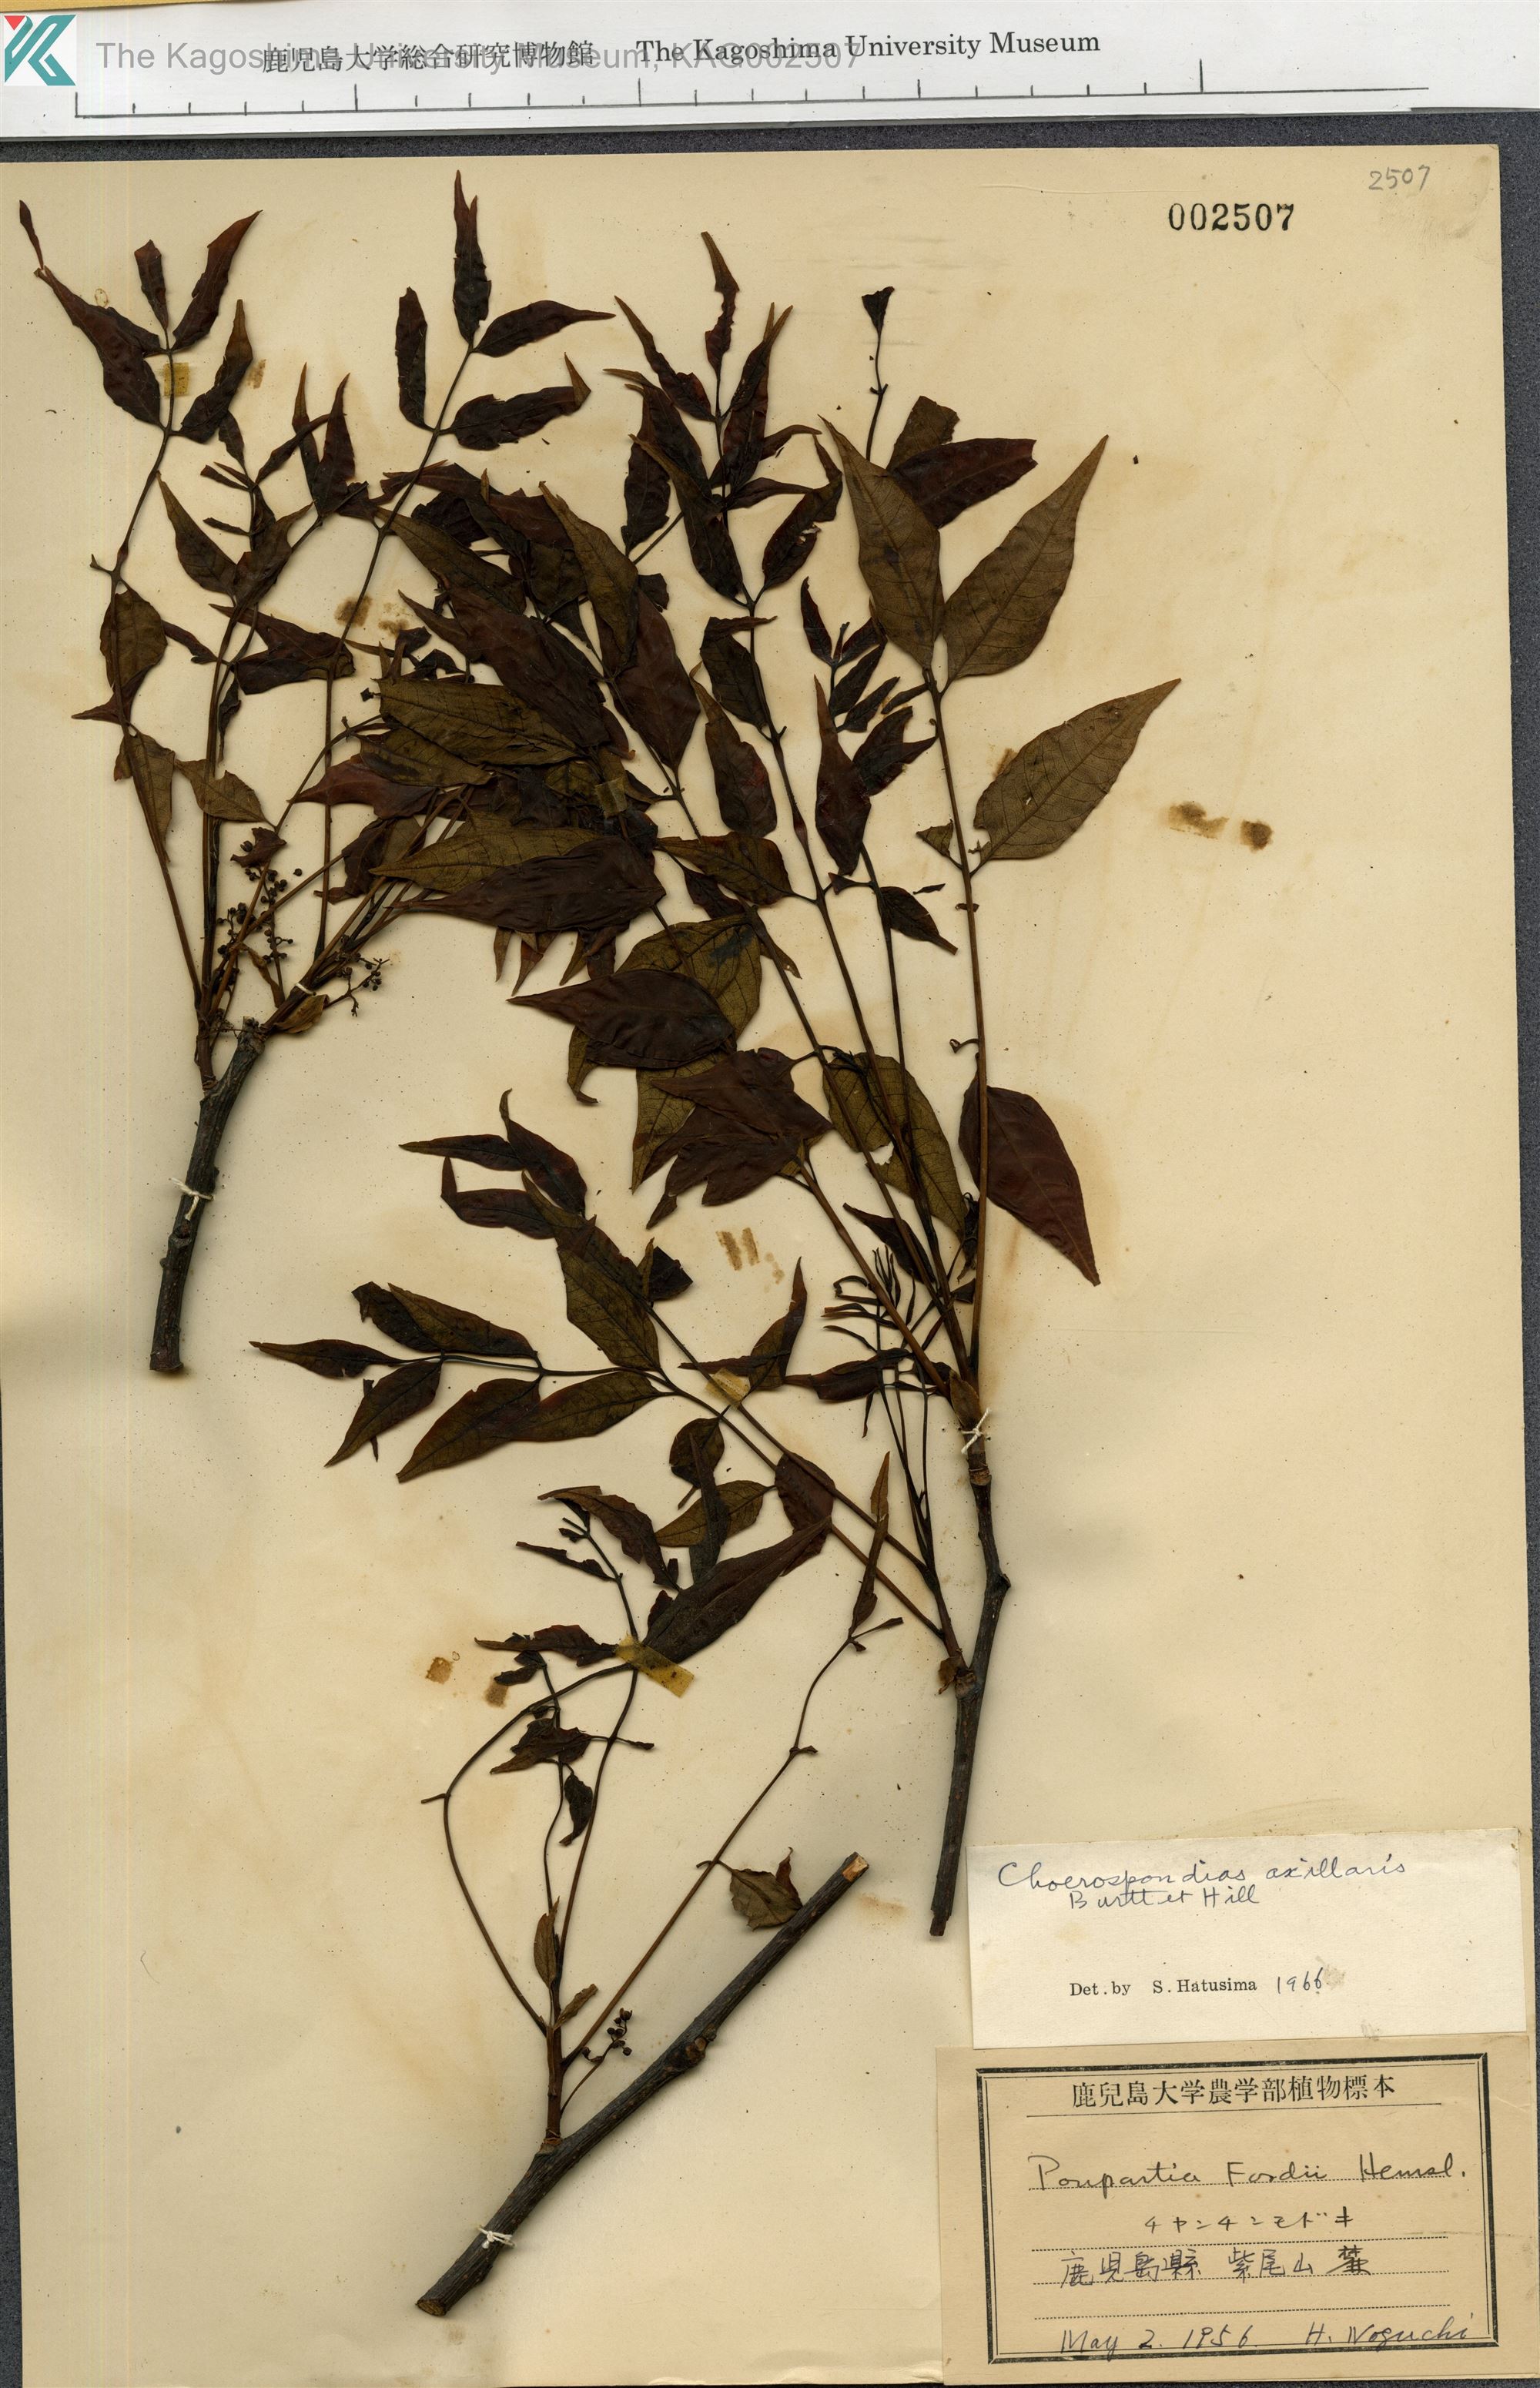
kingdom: Plantae
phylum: Tracheophyta
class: Magnoliopsida
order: Sapindales
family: Anacardiaceae
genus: Choerospondias
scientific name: Choerospondias axillaris
